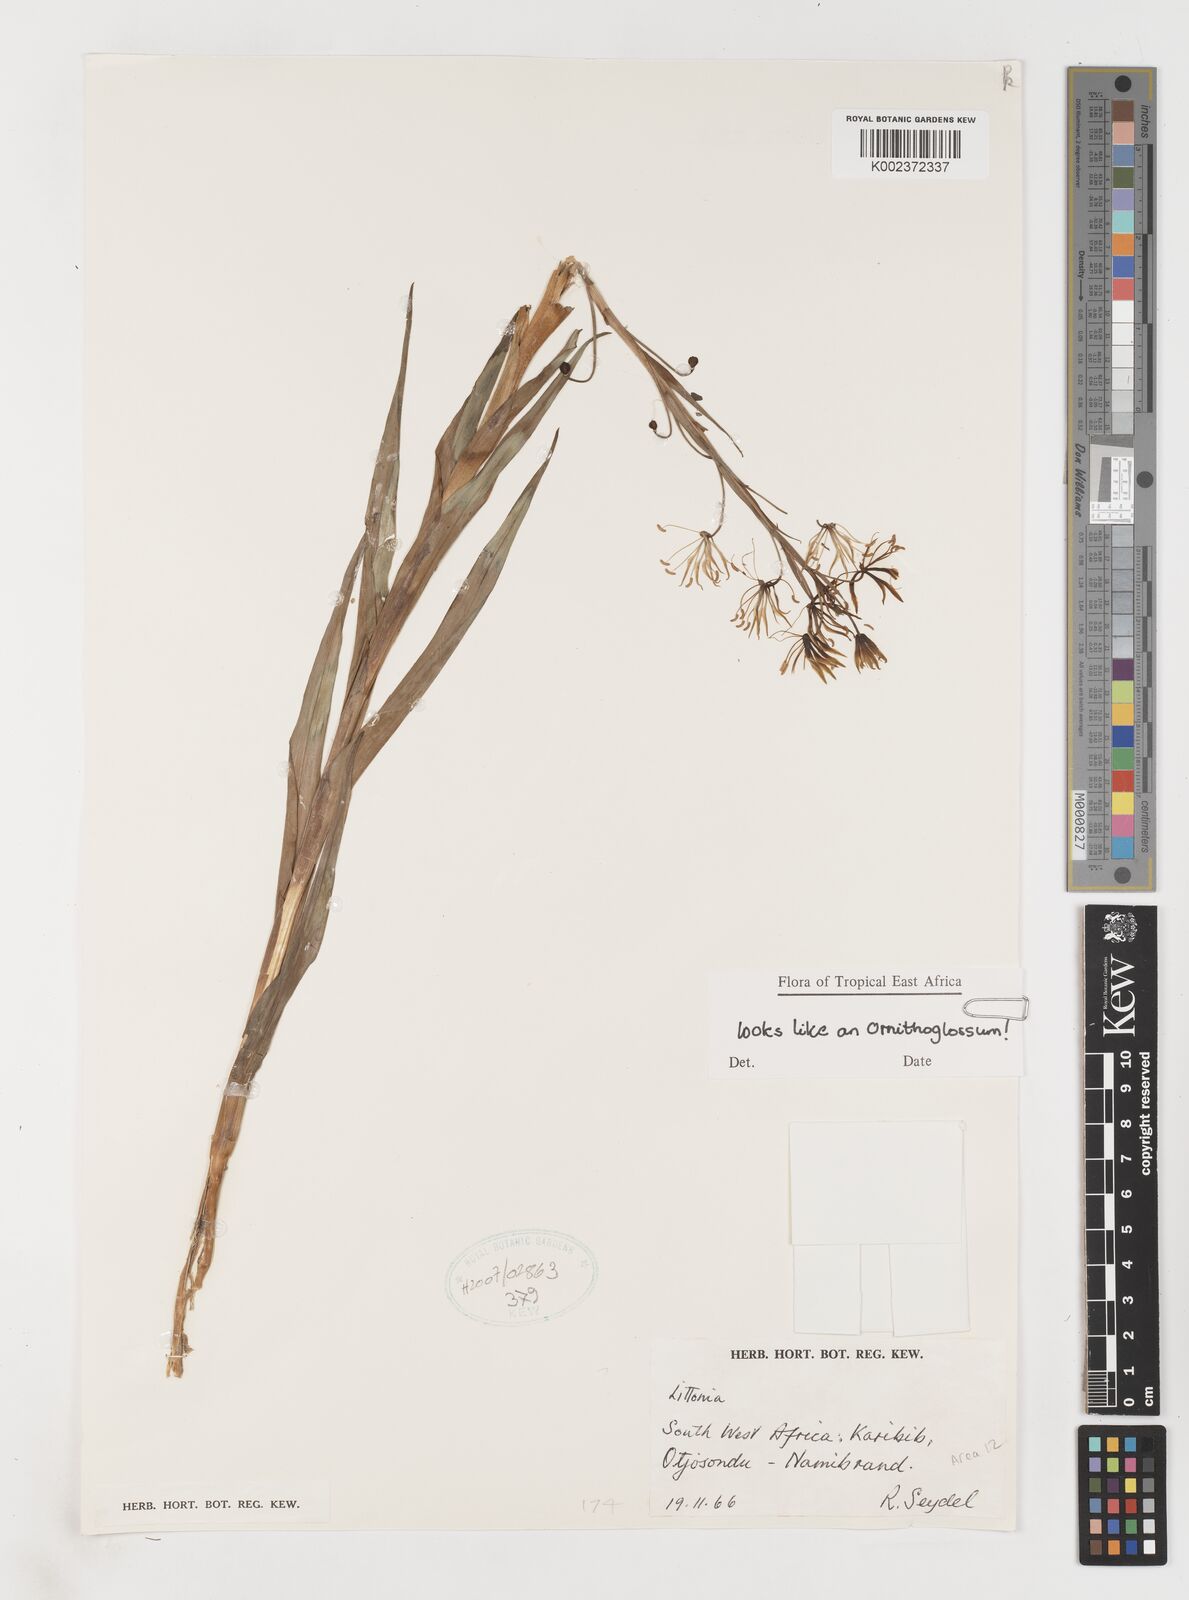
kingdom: Plantae
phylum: Tracheophyta
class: Liliopsida
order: Liliales
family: Colchicaceae
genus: Ornithoglossum
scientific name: Ornithoglossum
